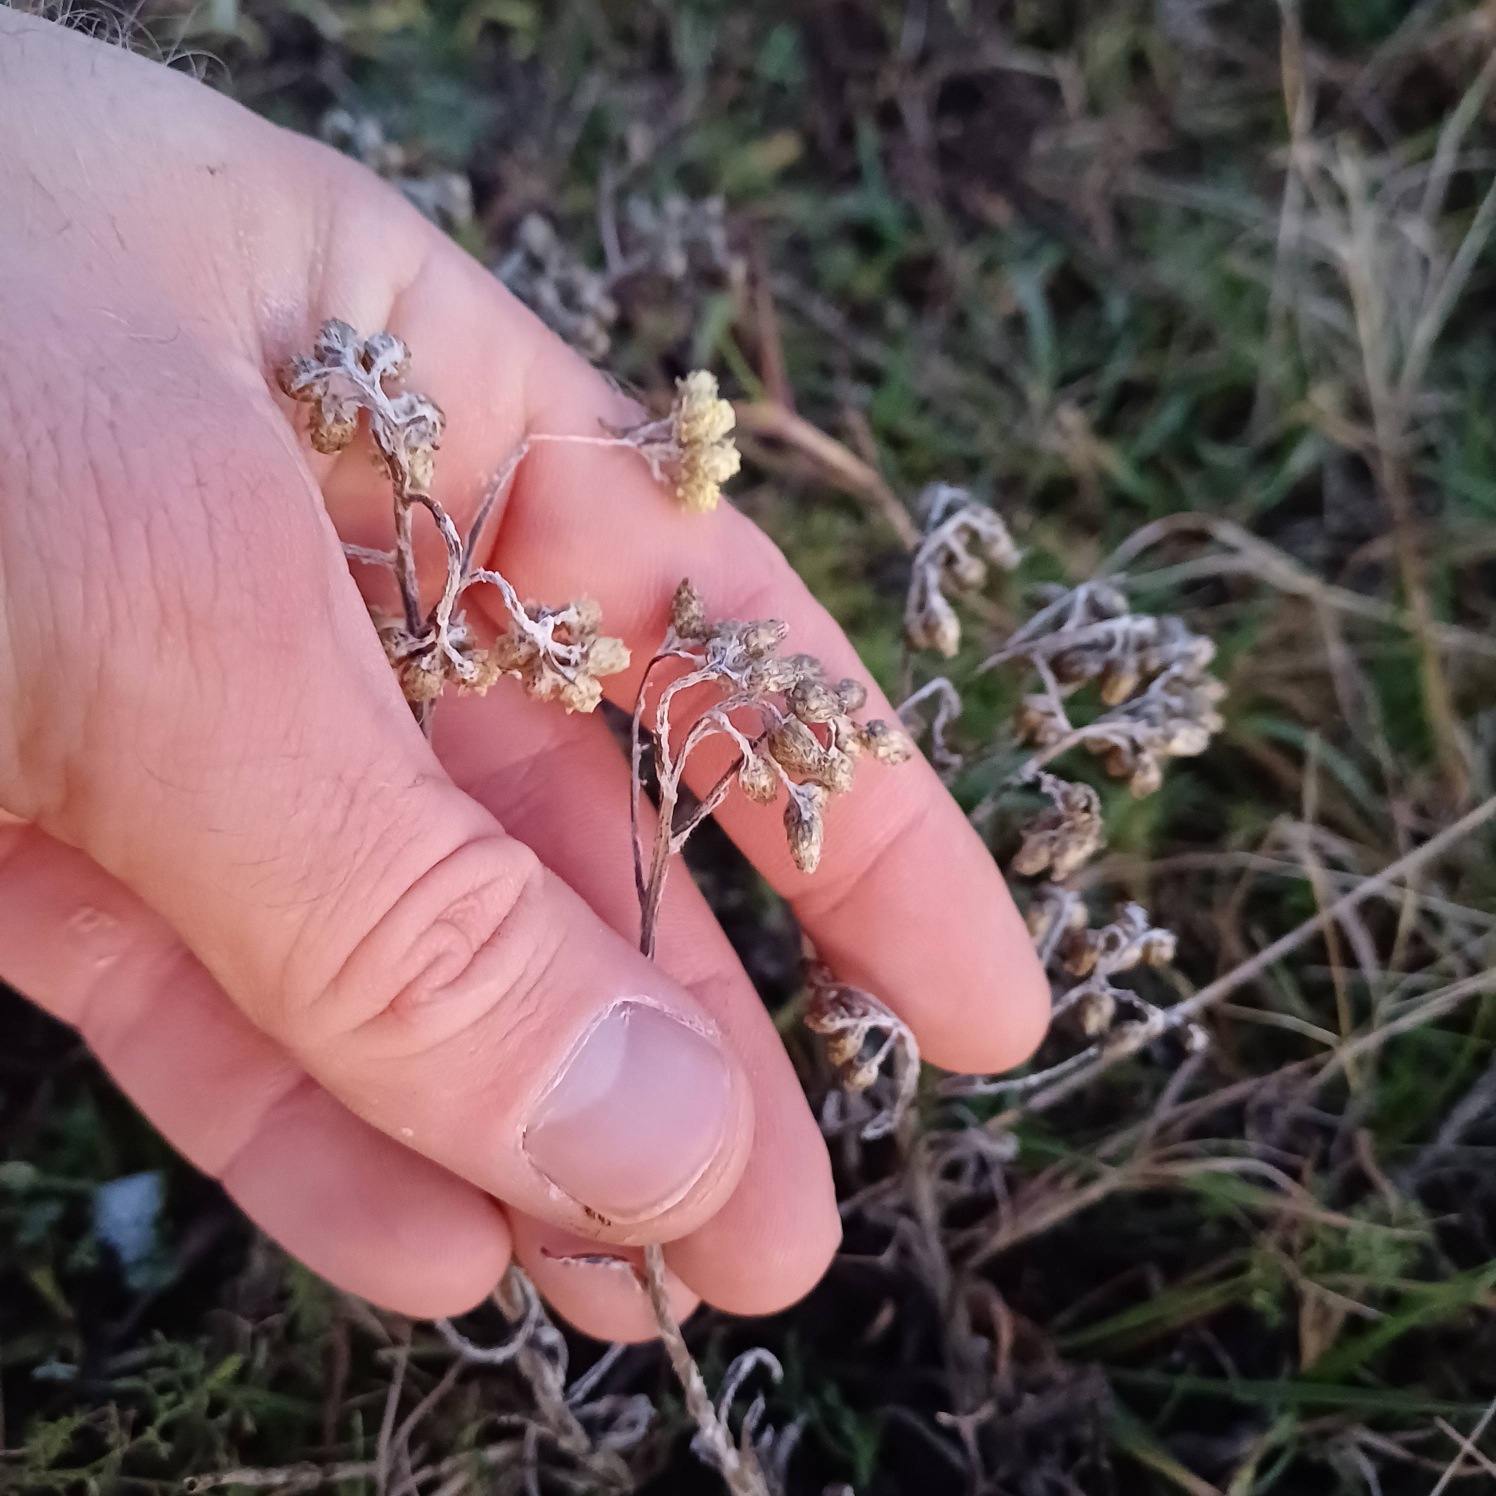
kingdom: Plantae
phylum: Tracheophyta
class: Magnoliopsida
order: Asterales
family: Asteraceae
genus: Helichrysum
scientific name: Helichrysum arenarium
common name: Gul evighedsblomst
